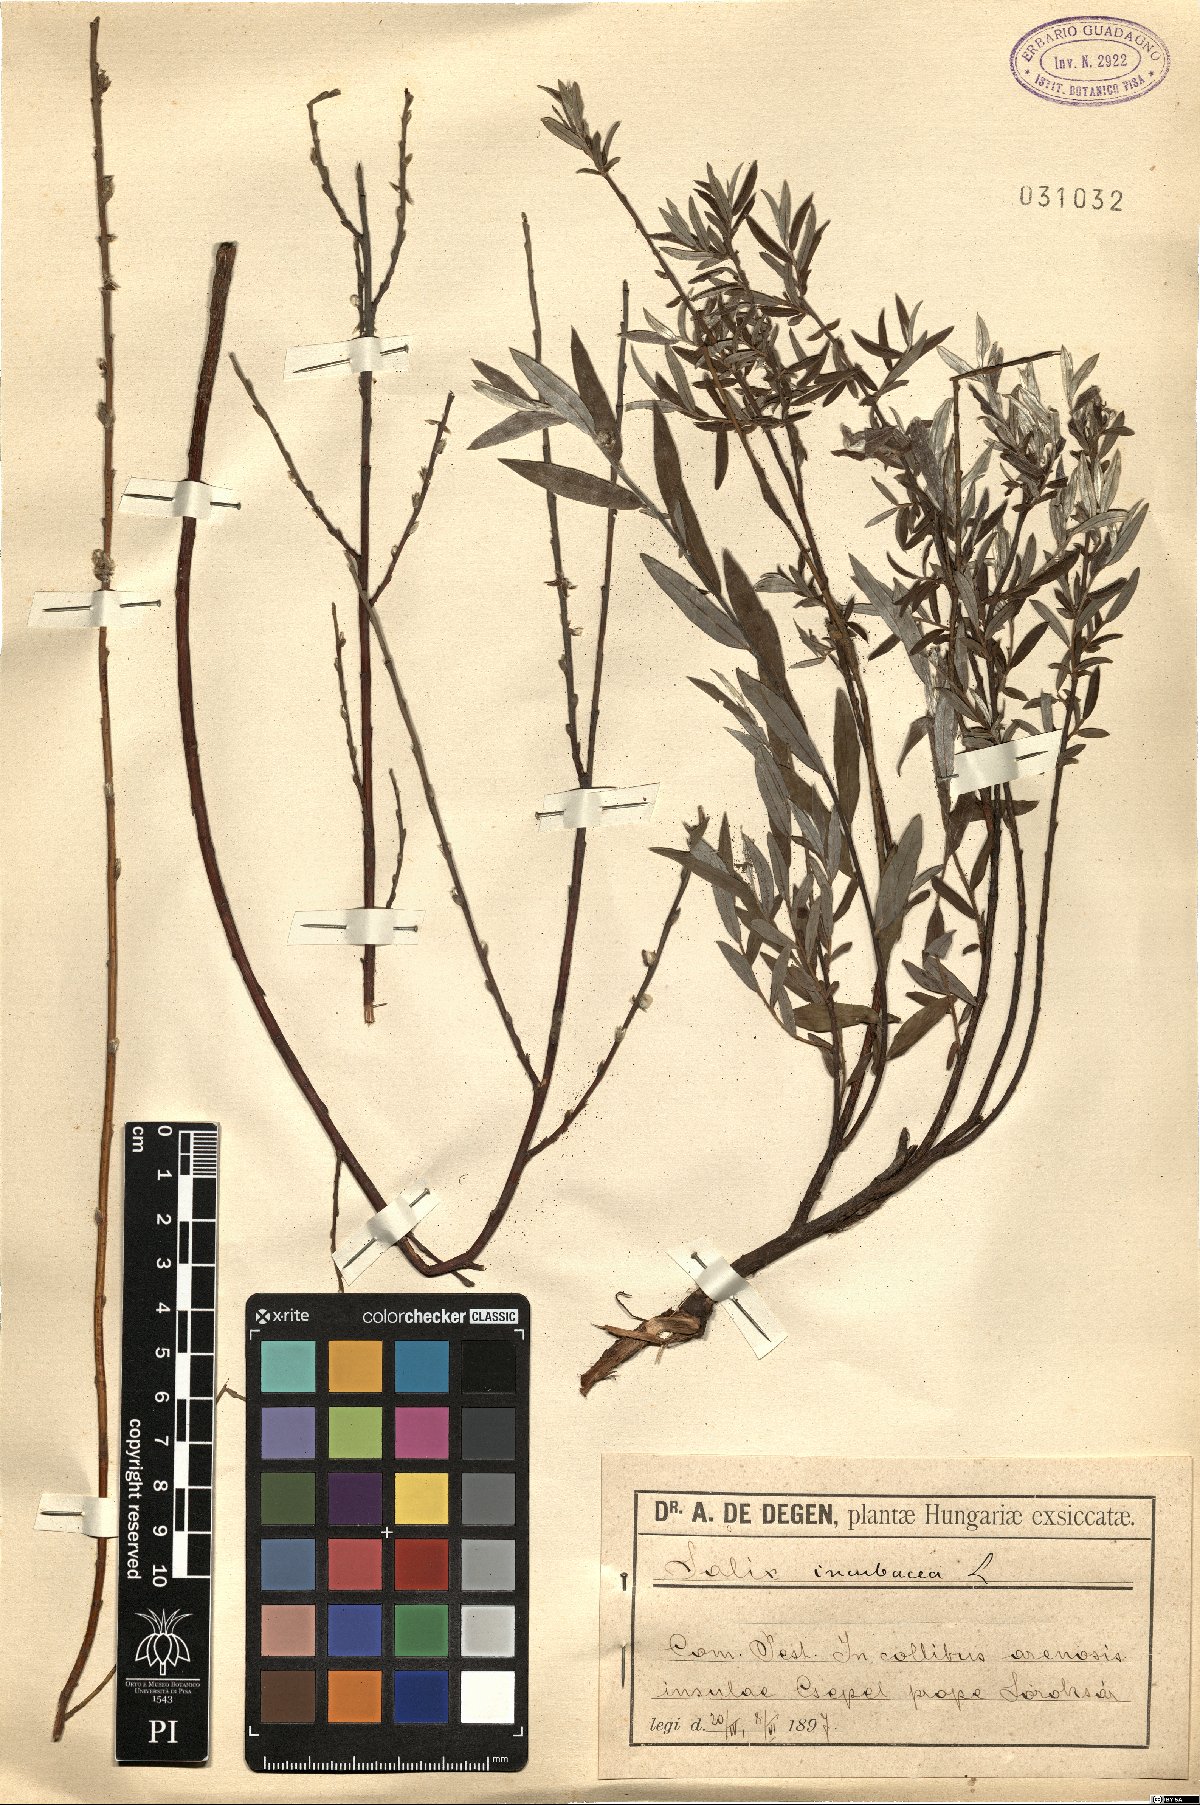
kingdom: Plantae
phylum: Tracheophyta
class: Magnoliopsida
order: Malpighiales
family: Salicaceae
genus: Salix
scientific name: Salix incubacea
